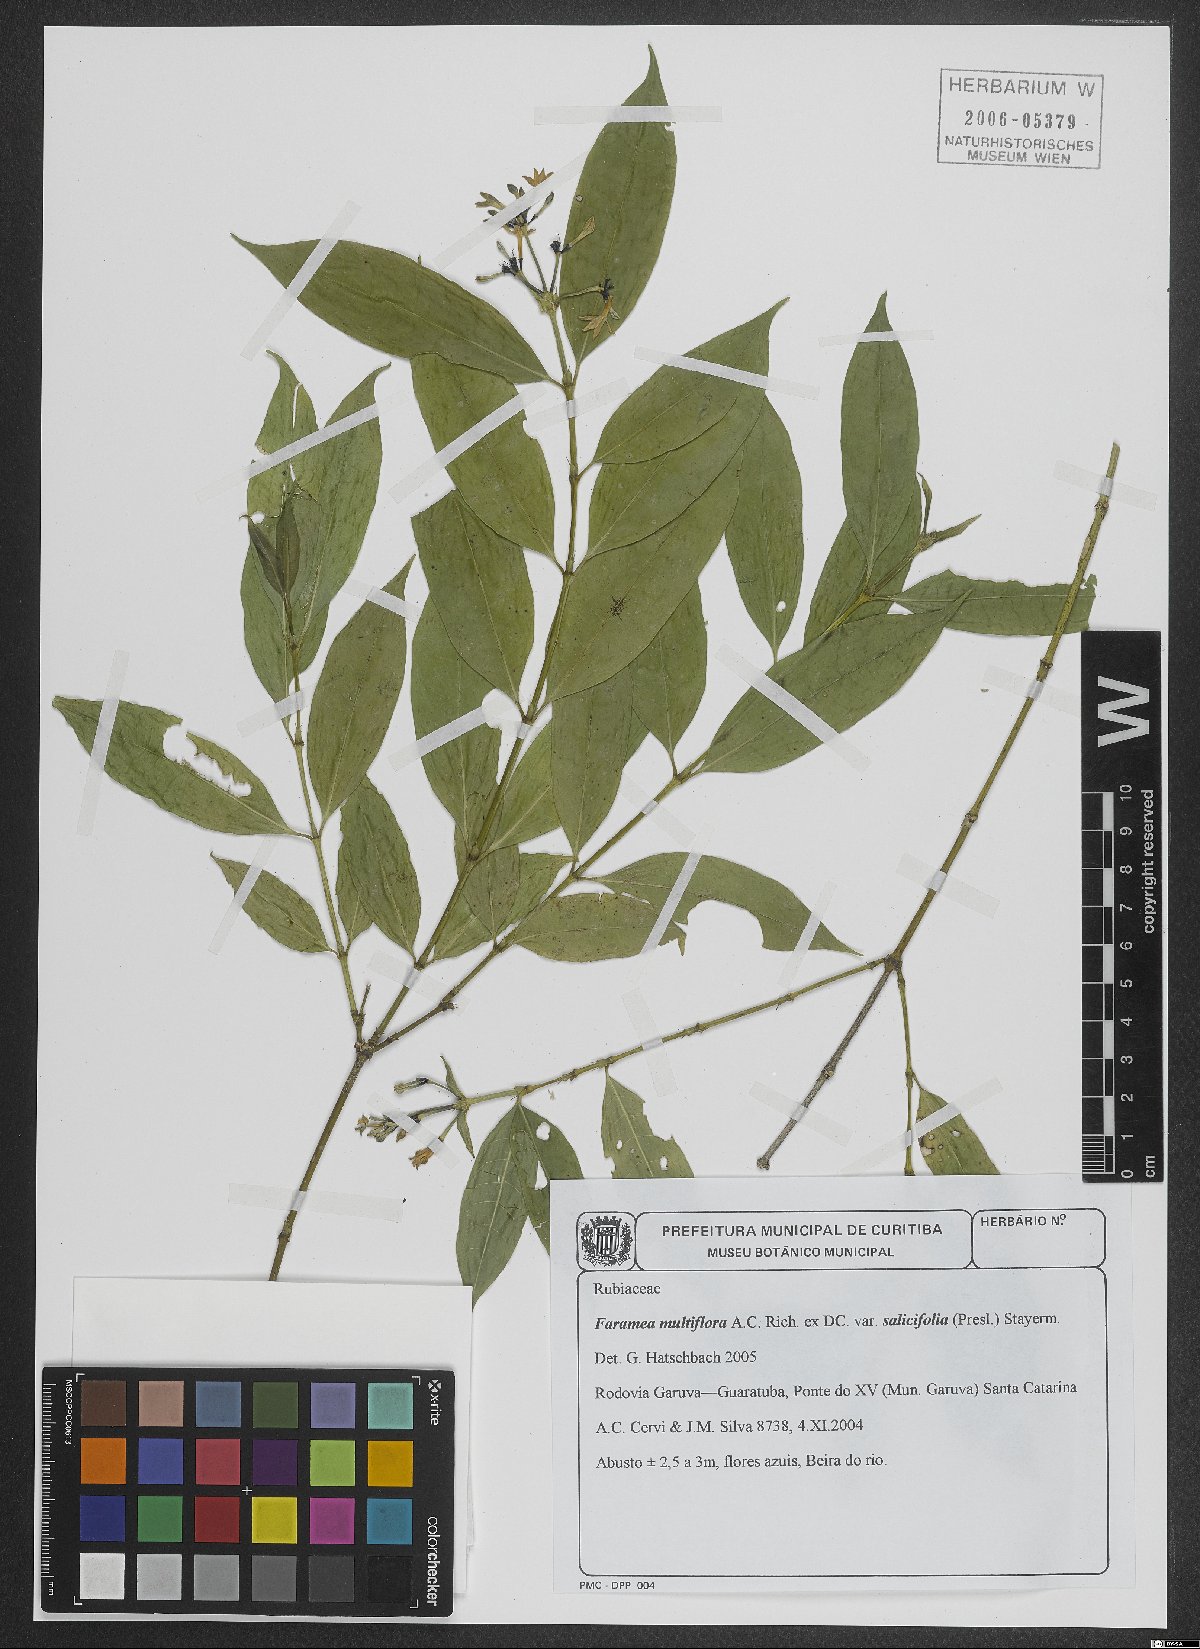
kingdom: Plantae
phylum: Tracheophyta
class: Magnoliopsida
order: Gentianales
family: Rubiaceae
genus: Faramea
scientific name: Faramea multiflora
